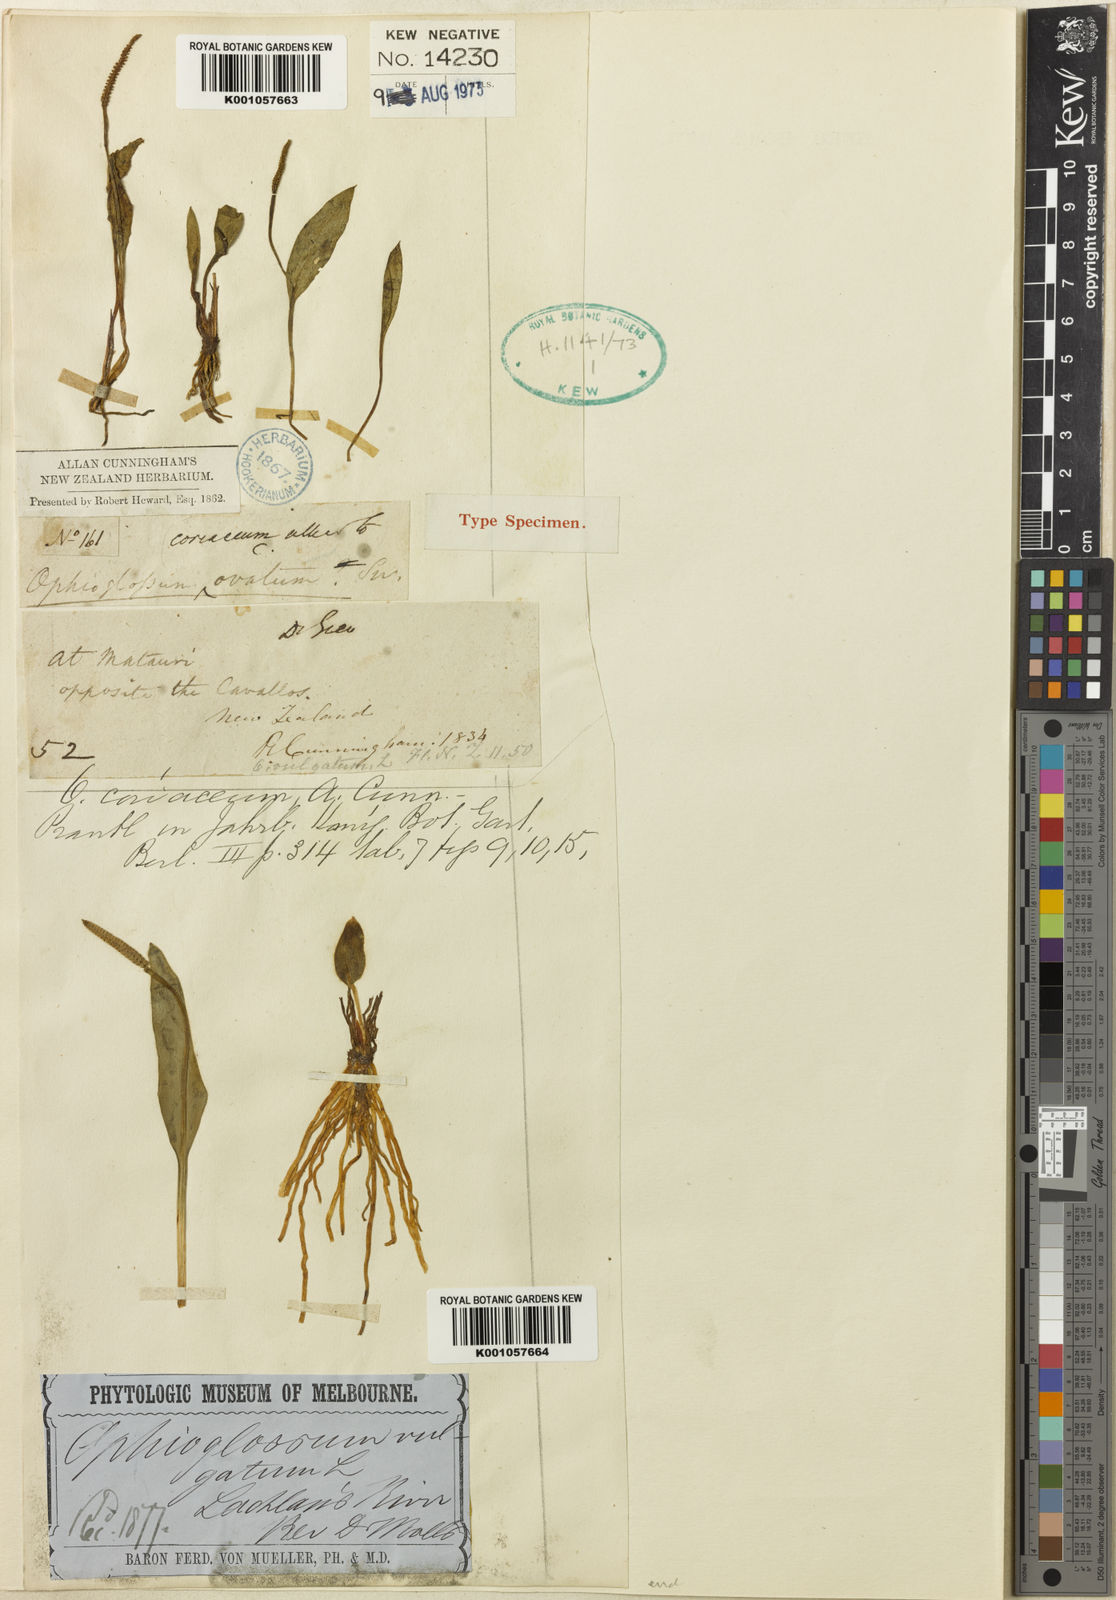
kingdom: Plantae
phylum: Tracheophyta
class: Polypodiopsida
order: Ophioglossales
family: Ophioglossaceae
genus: Ophioglossum
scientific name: Ophioglossum coriaceum
